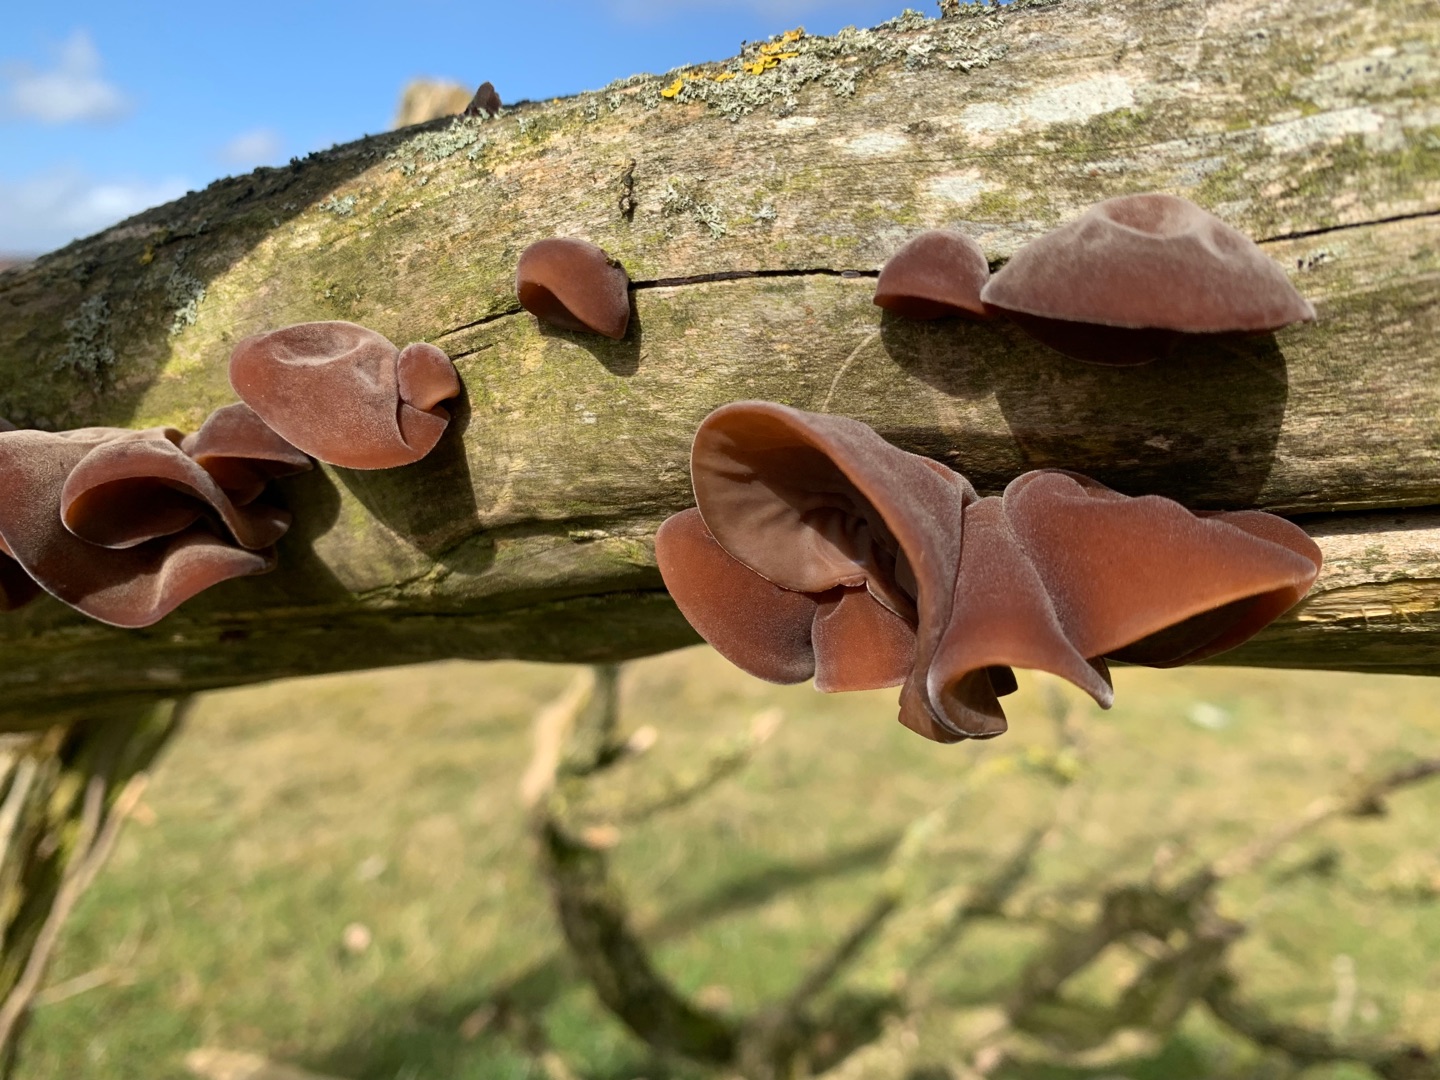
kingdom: Fungi
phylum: Basidiomycota
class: Agaricomycetes
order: Auriculariales
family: Auriculariaceae
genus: Auricularia
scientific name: Auricularia auricula-judae
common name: Almindelig judasøre
